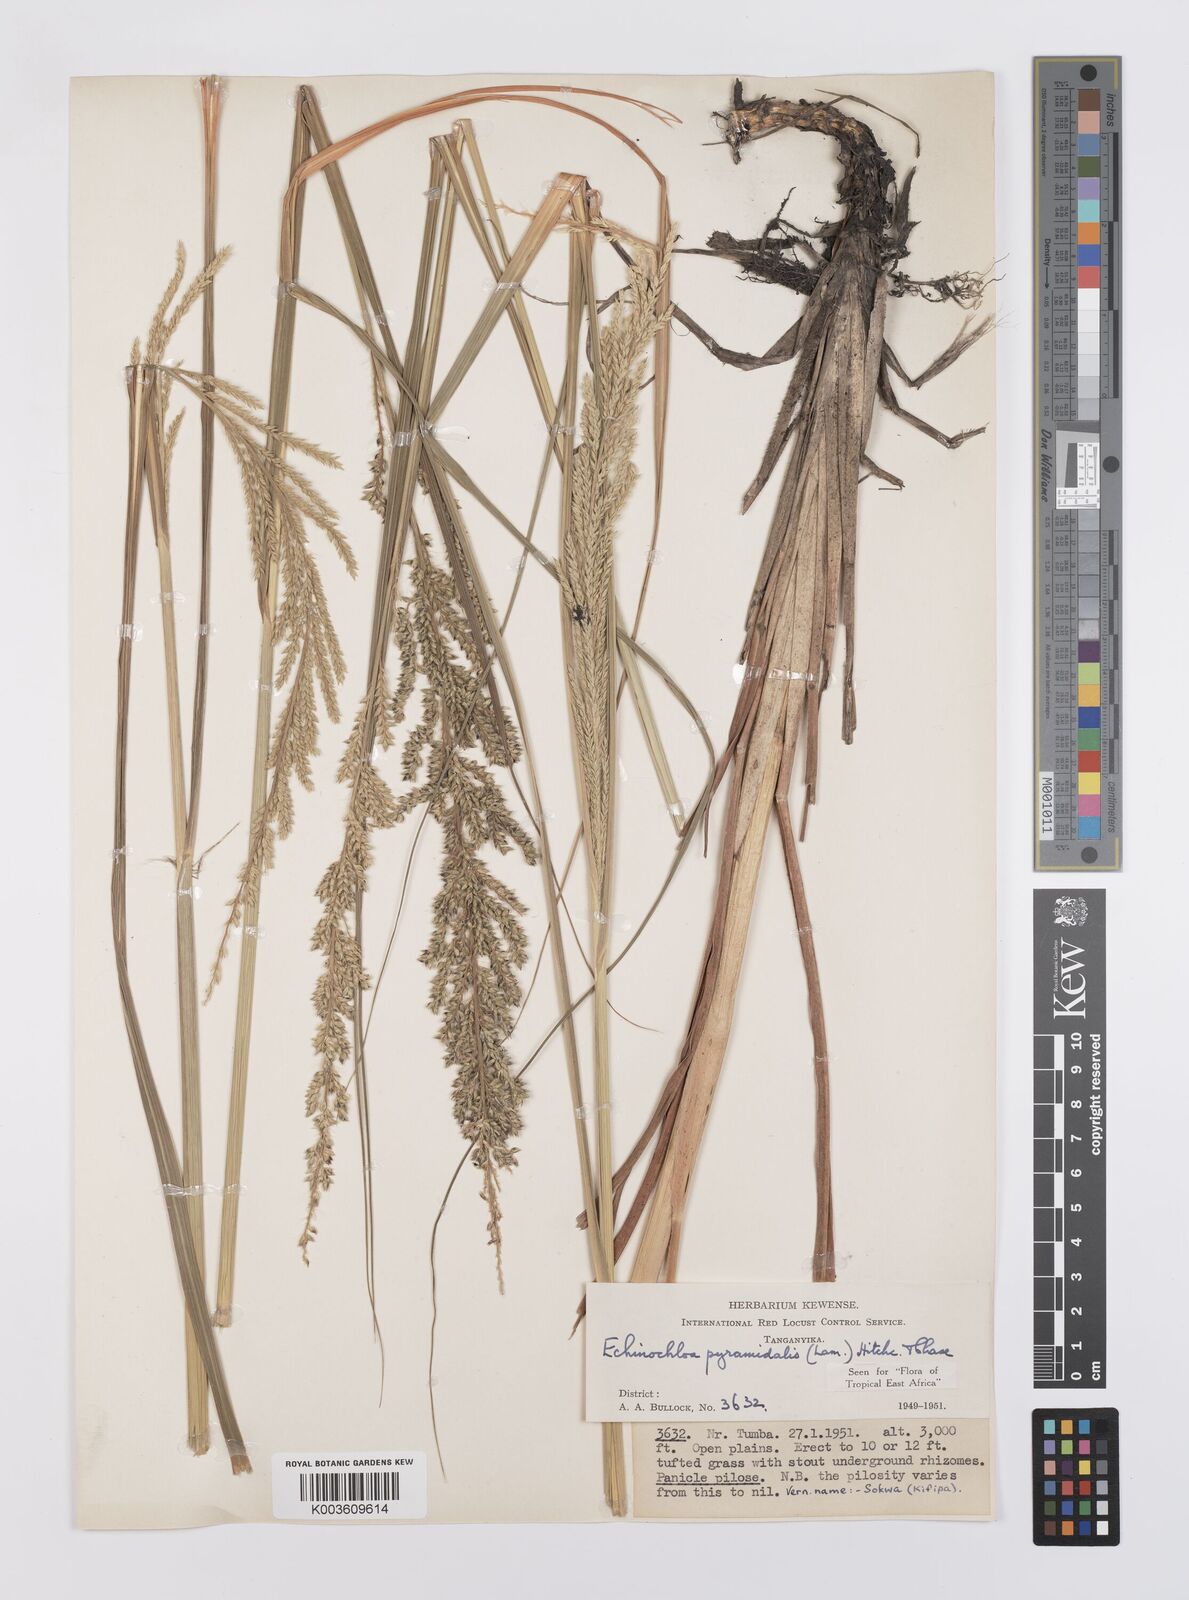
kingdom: Plantae
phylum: Tracheophyta
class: Liliopsida
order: Poales
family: Poaceae
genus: Echinochloa
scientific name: Echinochloa pyramidalis
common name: Antelope grass
